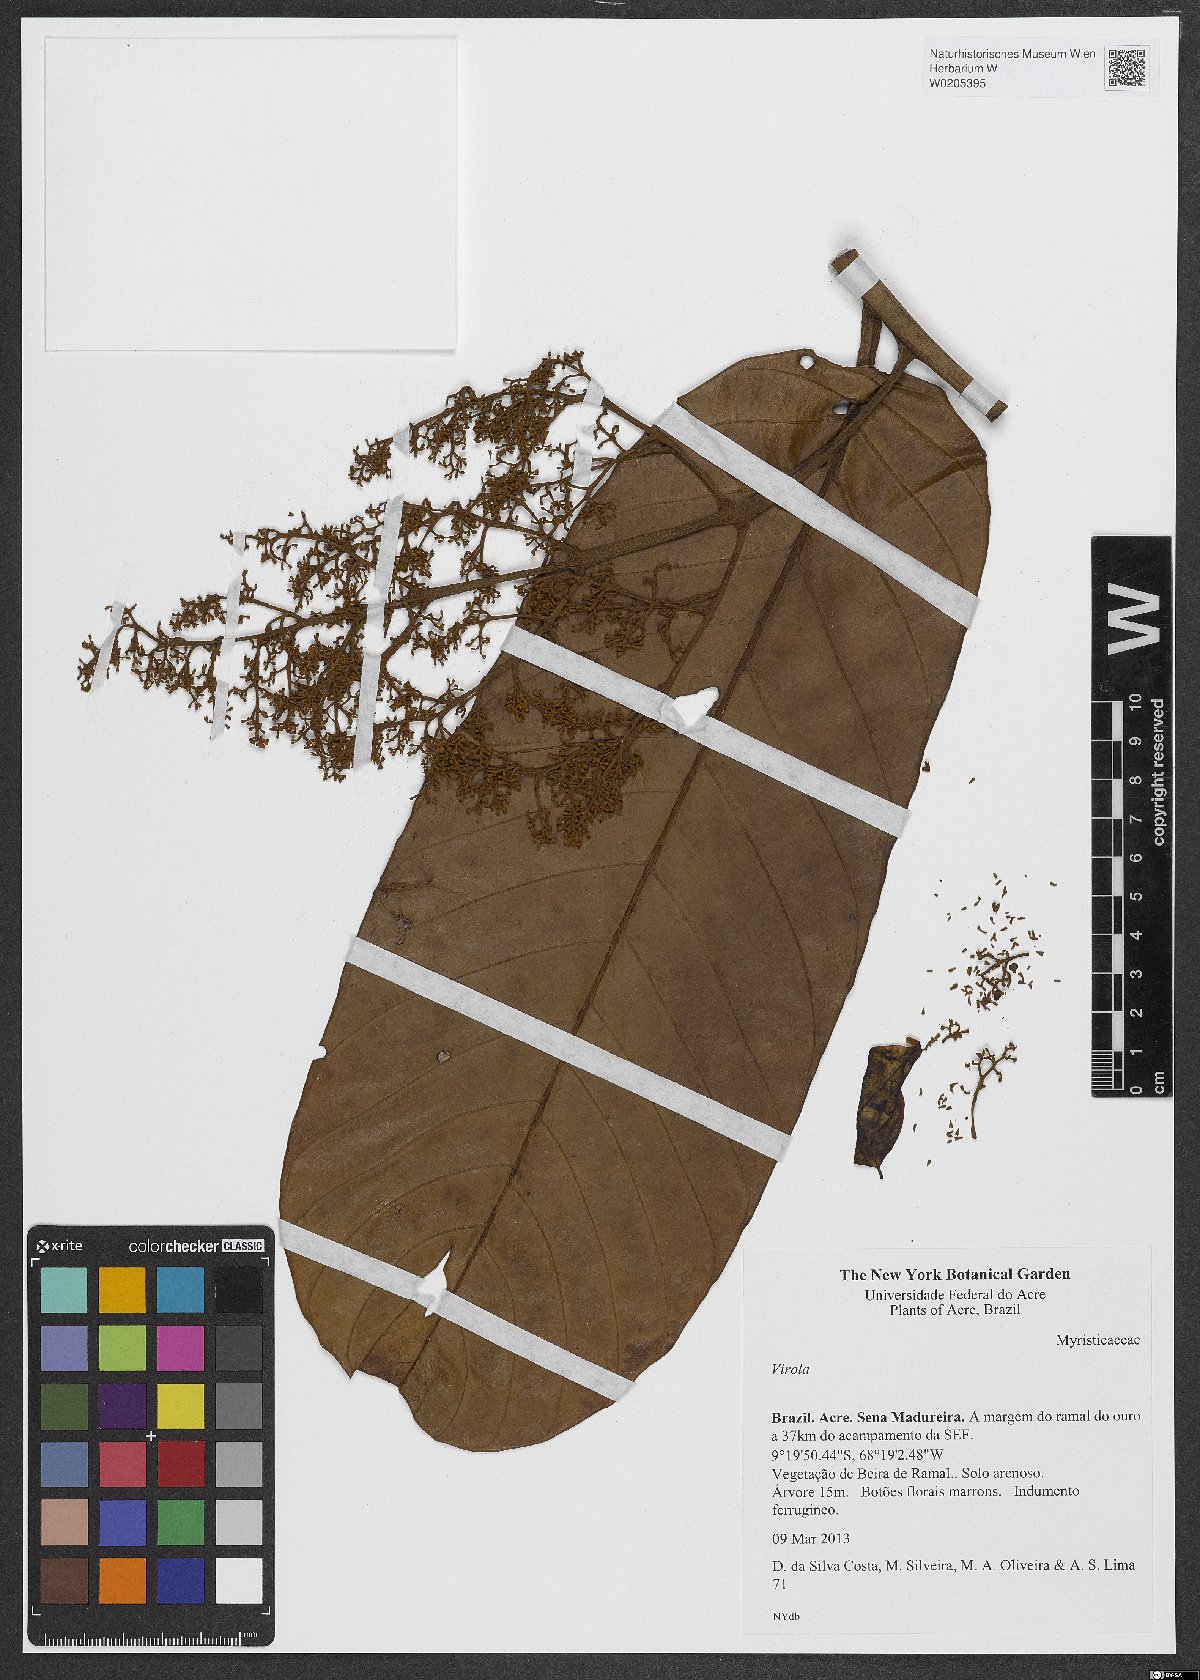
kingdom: Plantae
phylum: Tracheophyta
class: Magnoliopsida
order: Magnoliales
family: Myristicaceae
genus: Virola
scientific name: Virola
